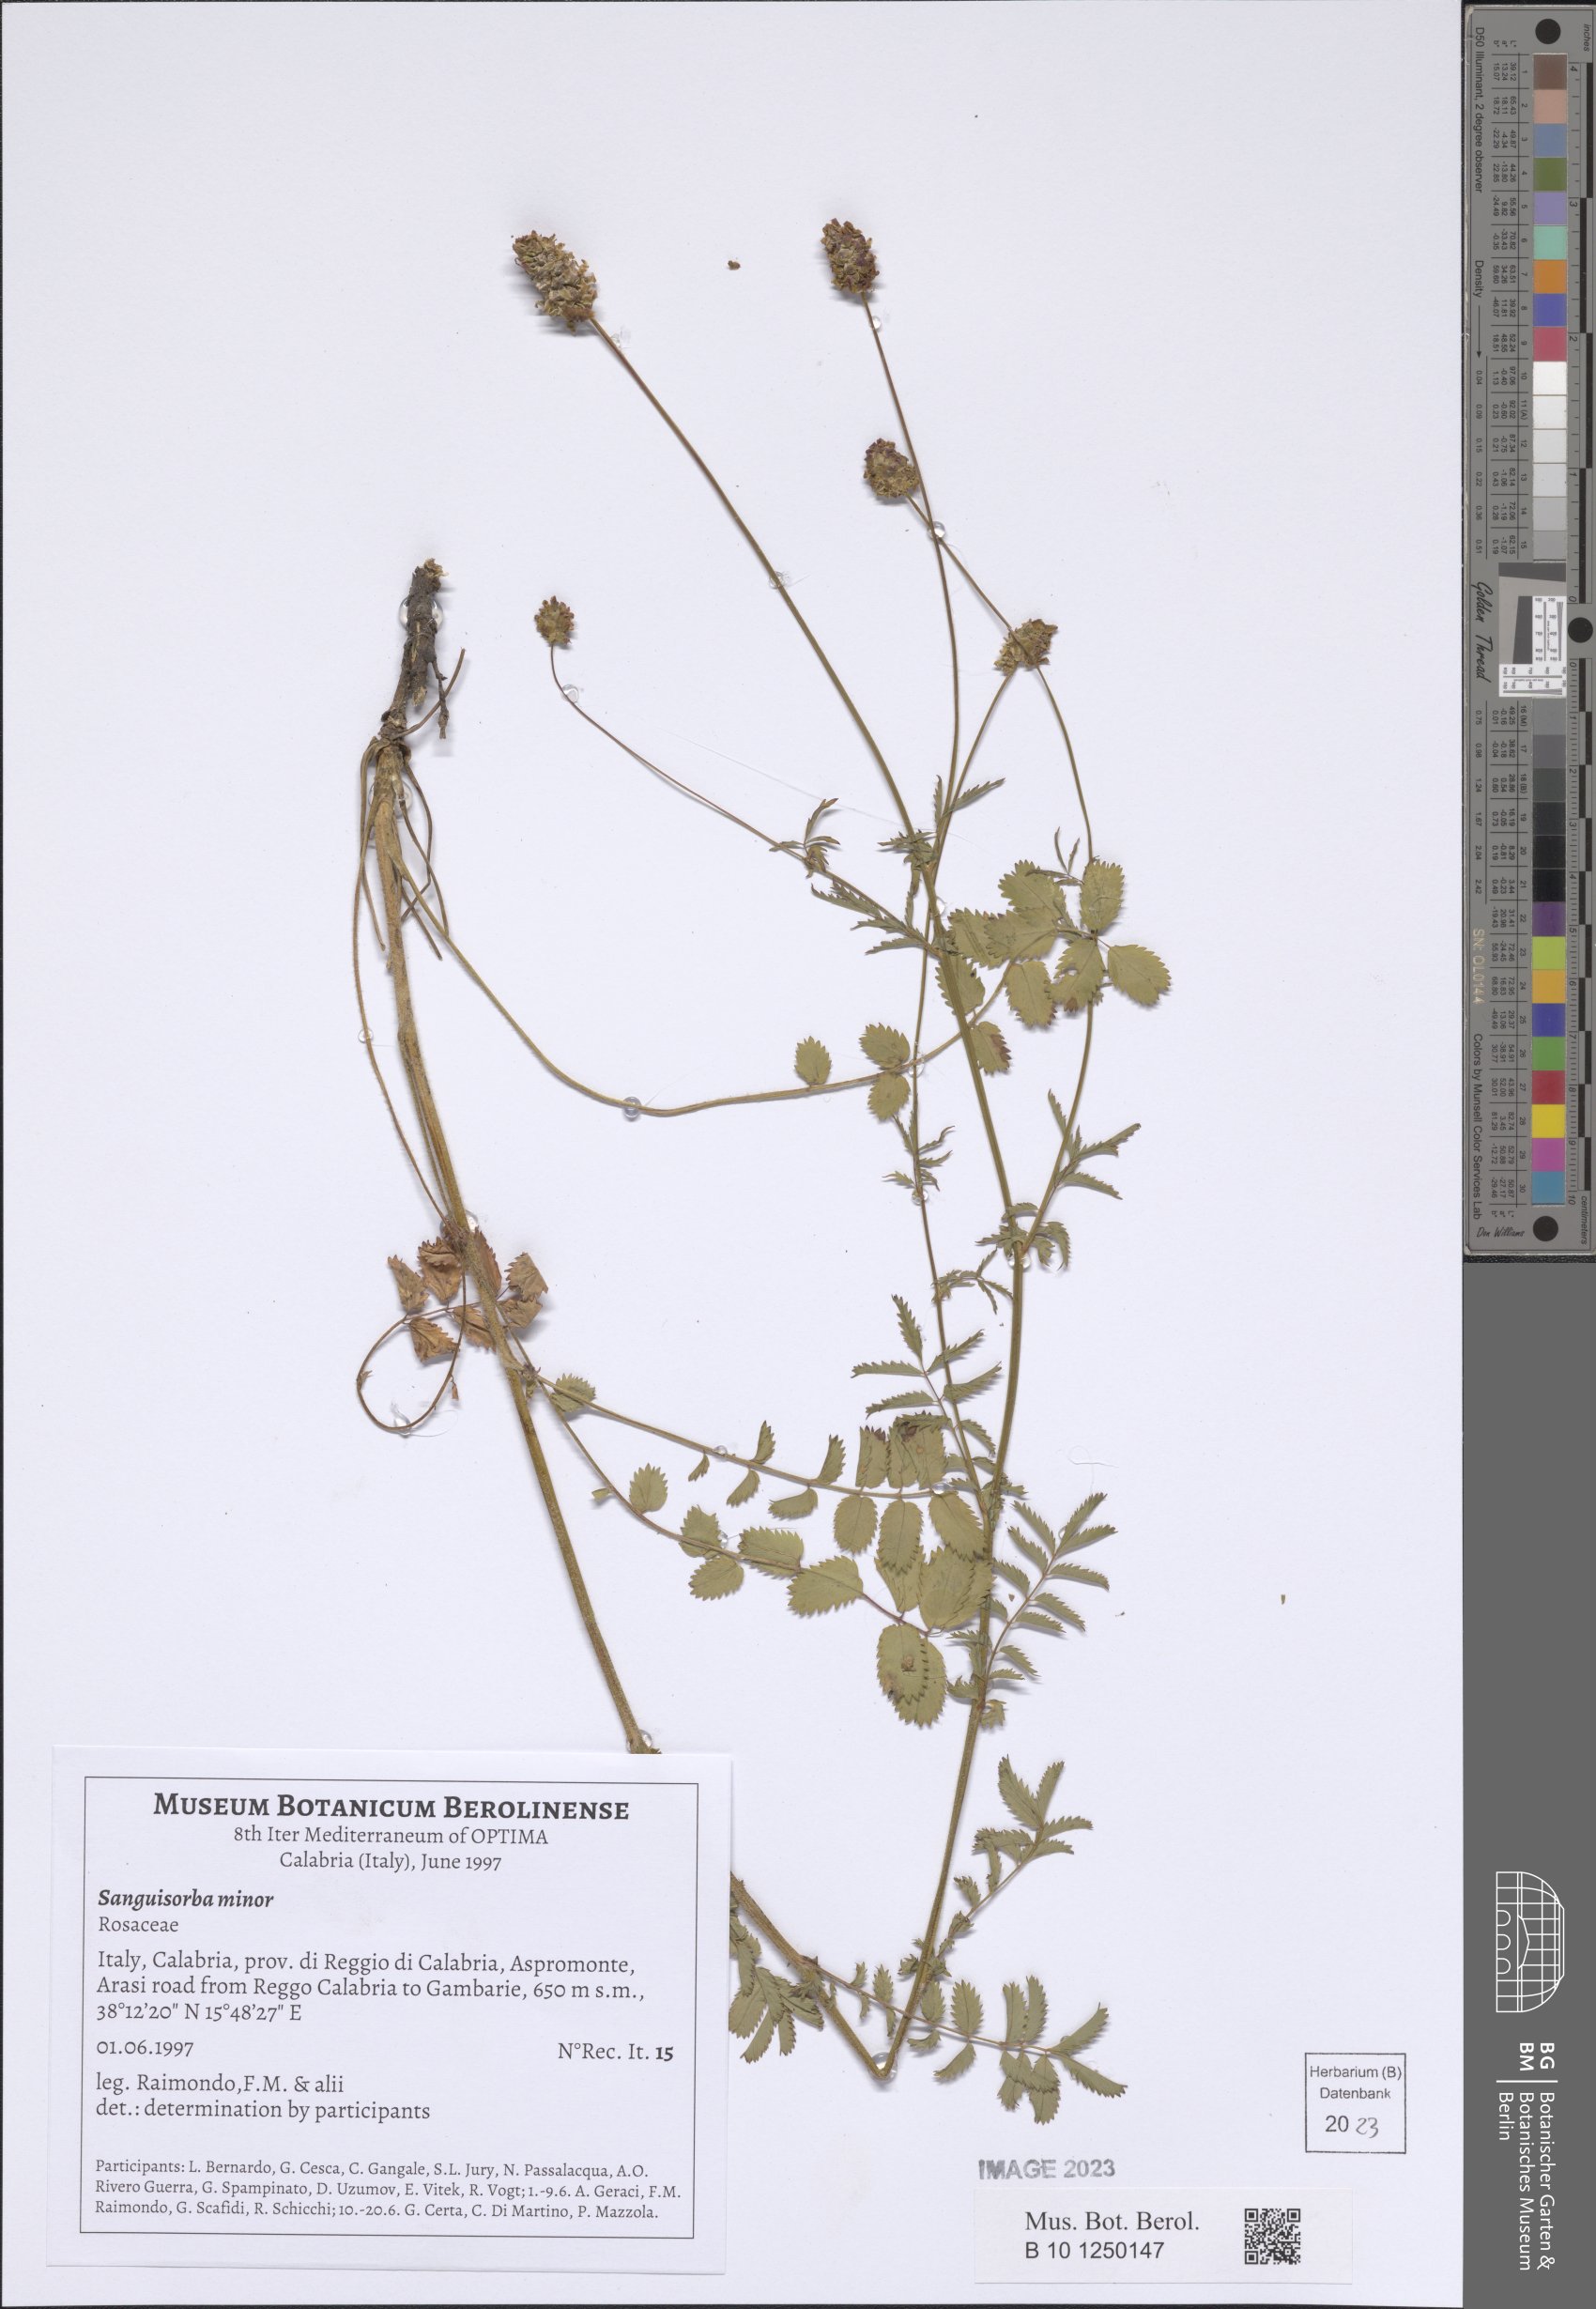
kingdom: Plantae
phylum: Tracheophyta
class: Magnoliopsida
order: Rosales
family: Rosaceae
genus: Poterium
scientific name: Poterium sanguisorba
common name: Salad burnet
